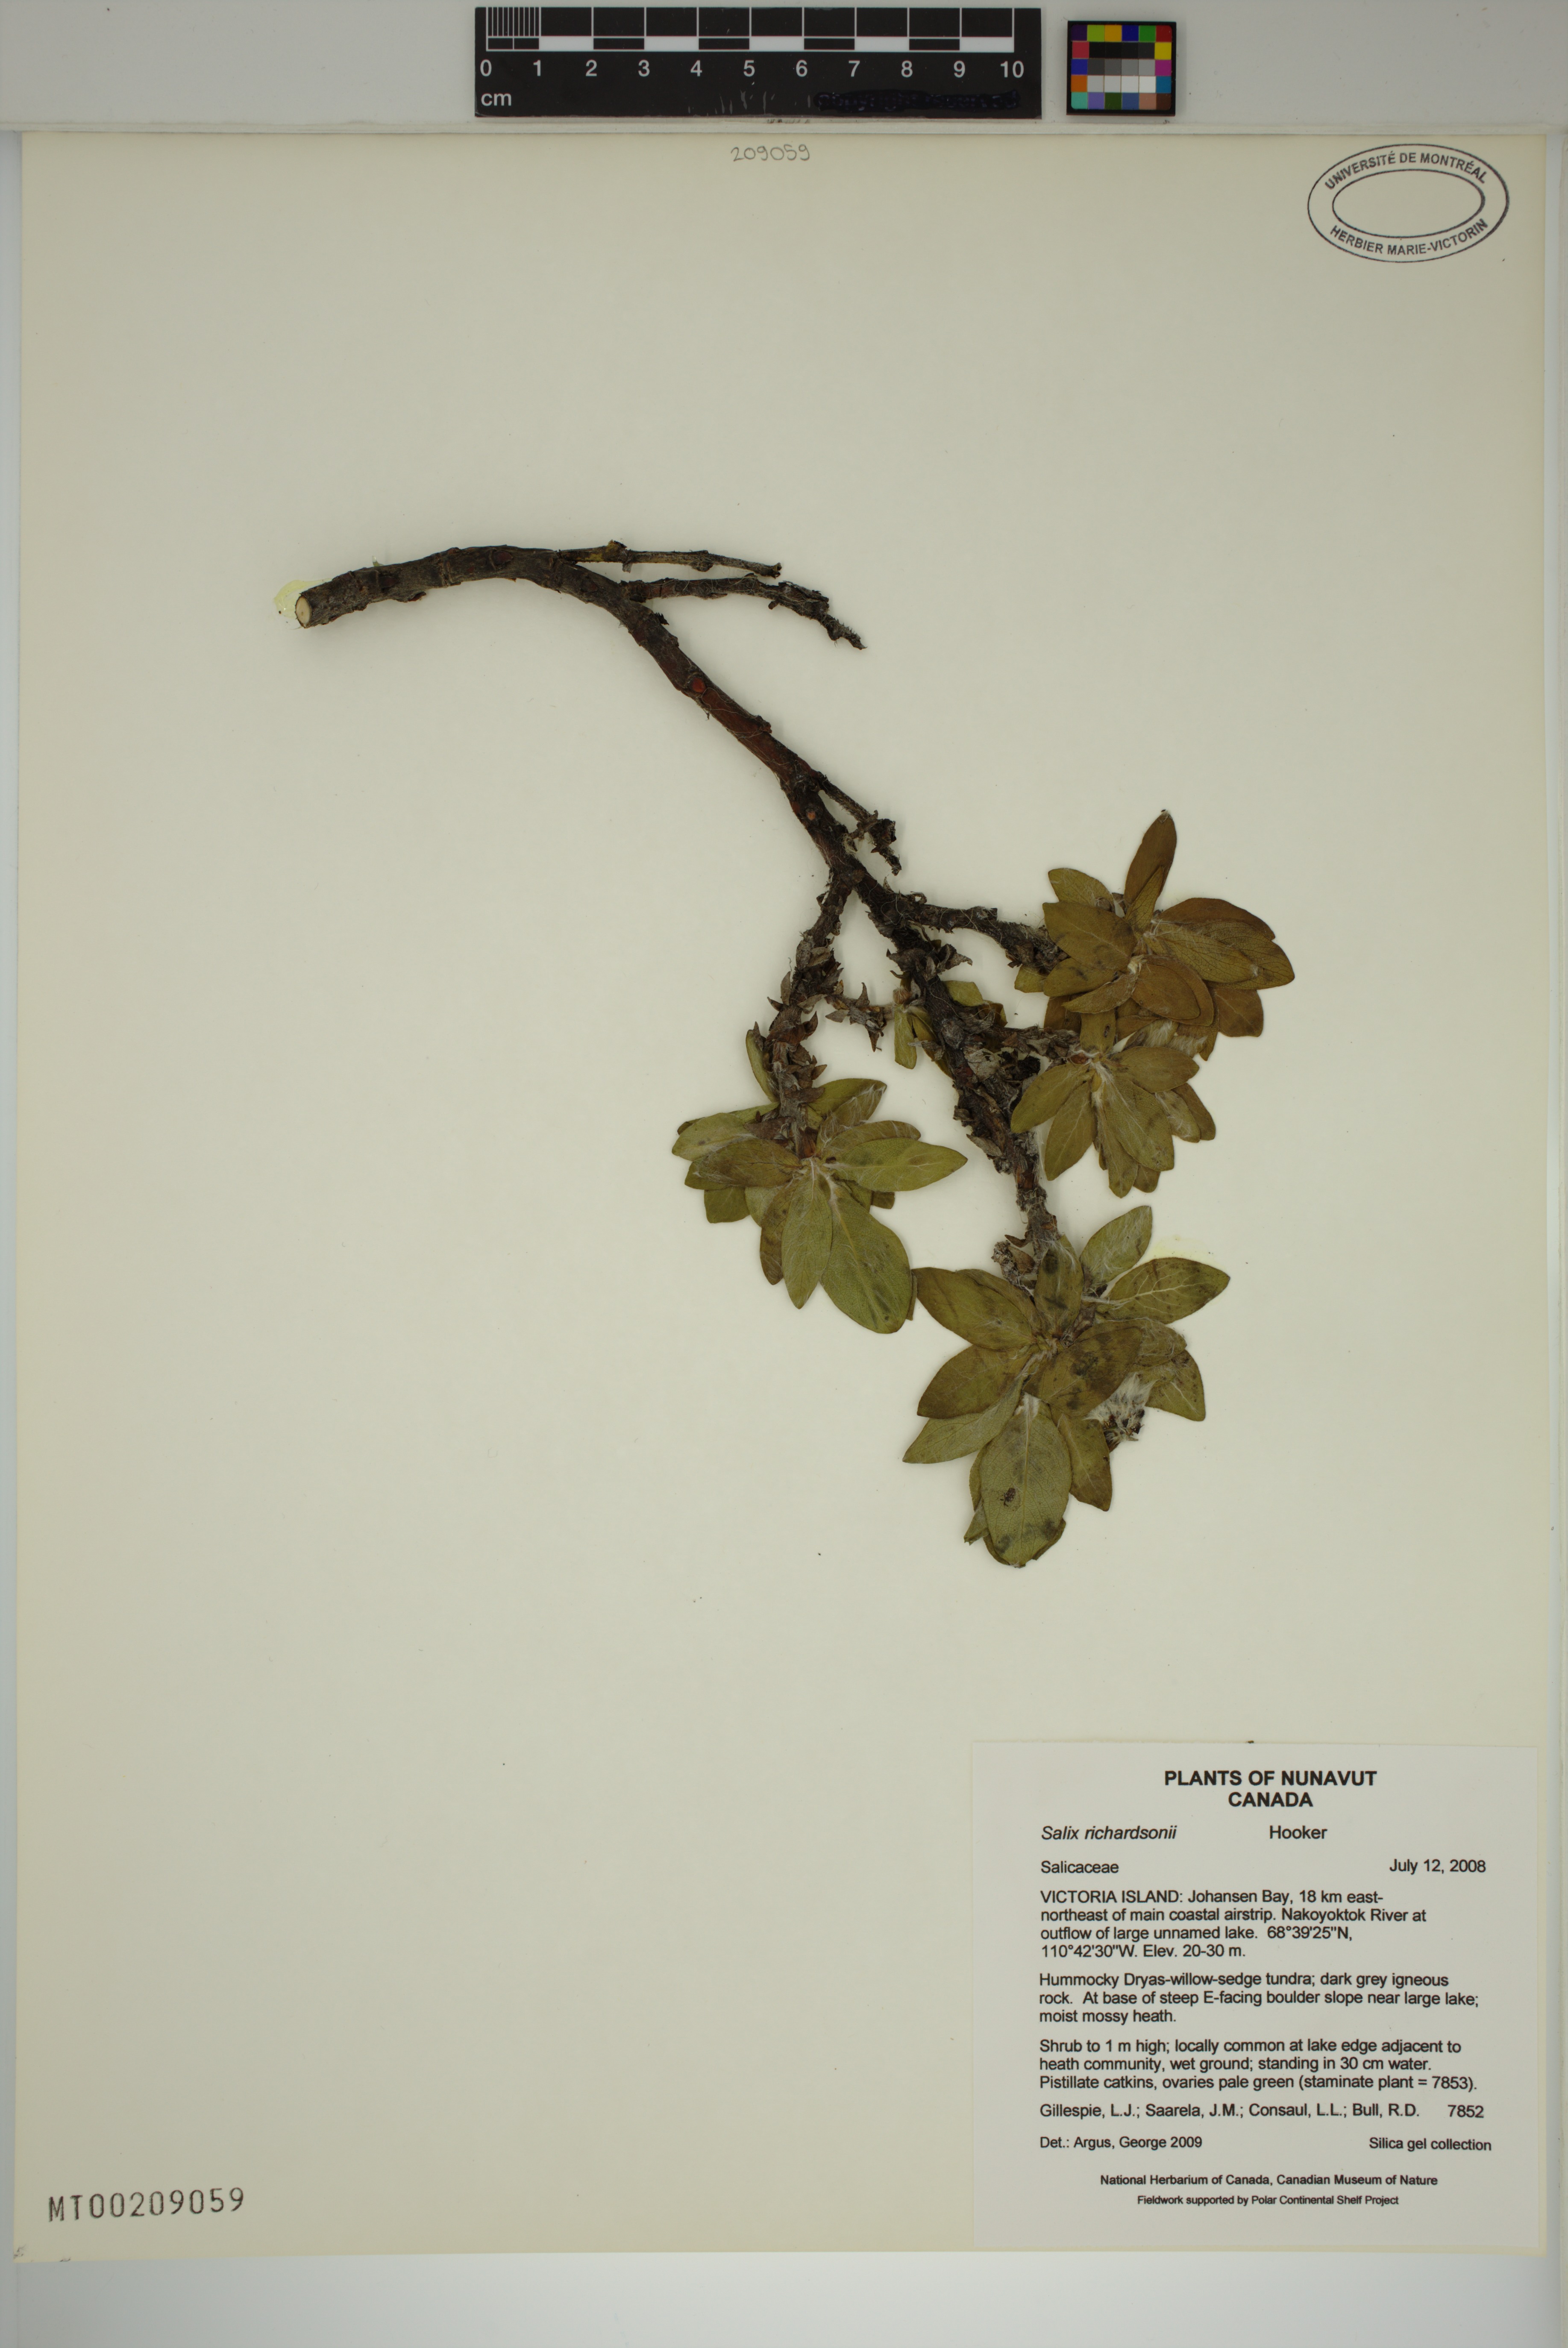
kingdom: Plantae
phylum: Tracheophyta
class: Magnoliopsida
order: Malpighiales
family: Salicaceae
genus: Salix
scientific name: Salix richardsonii
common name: Richardson’s willow
